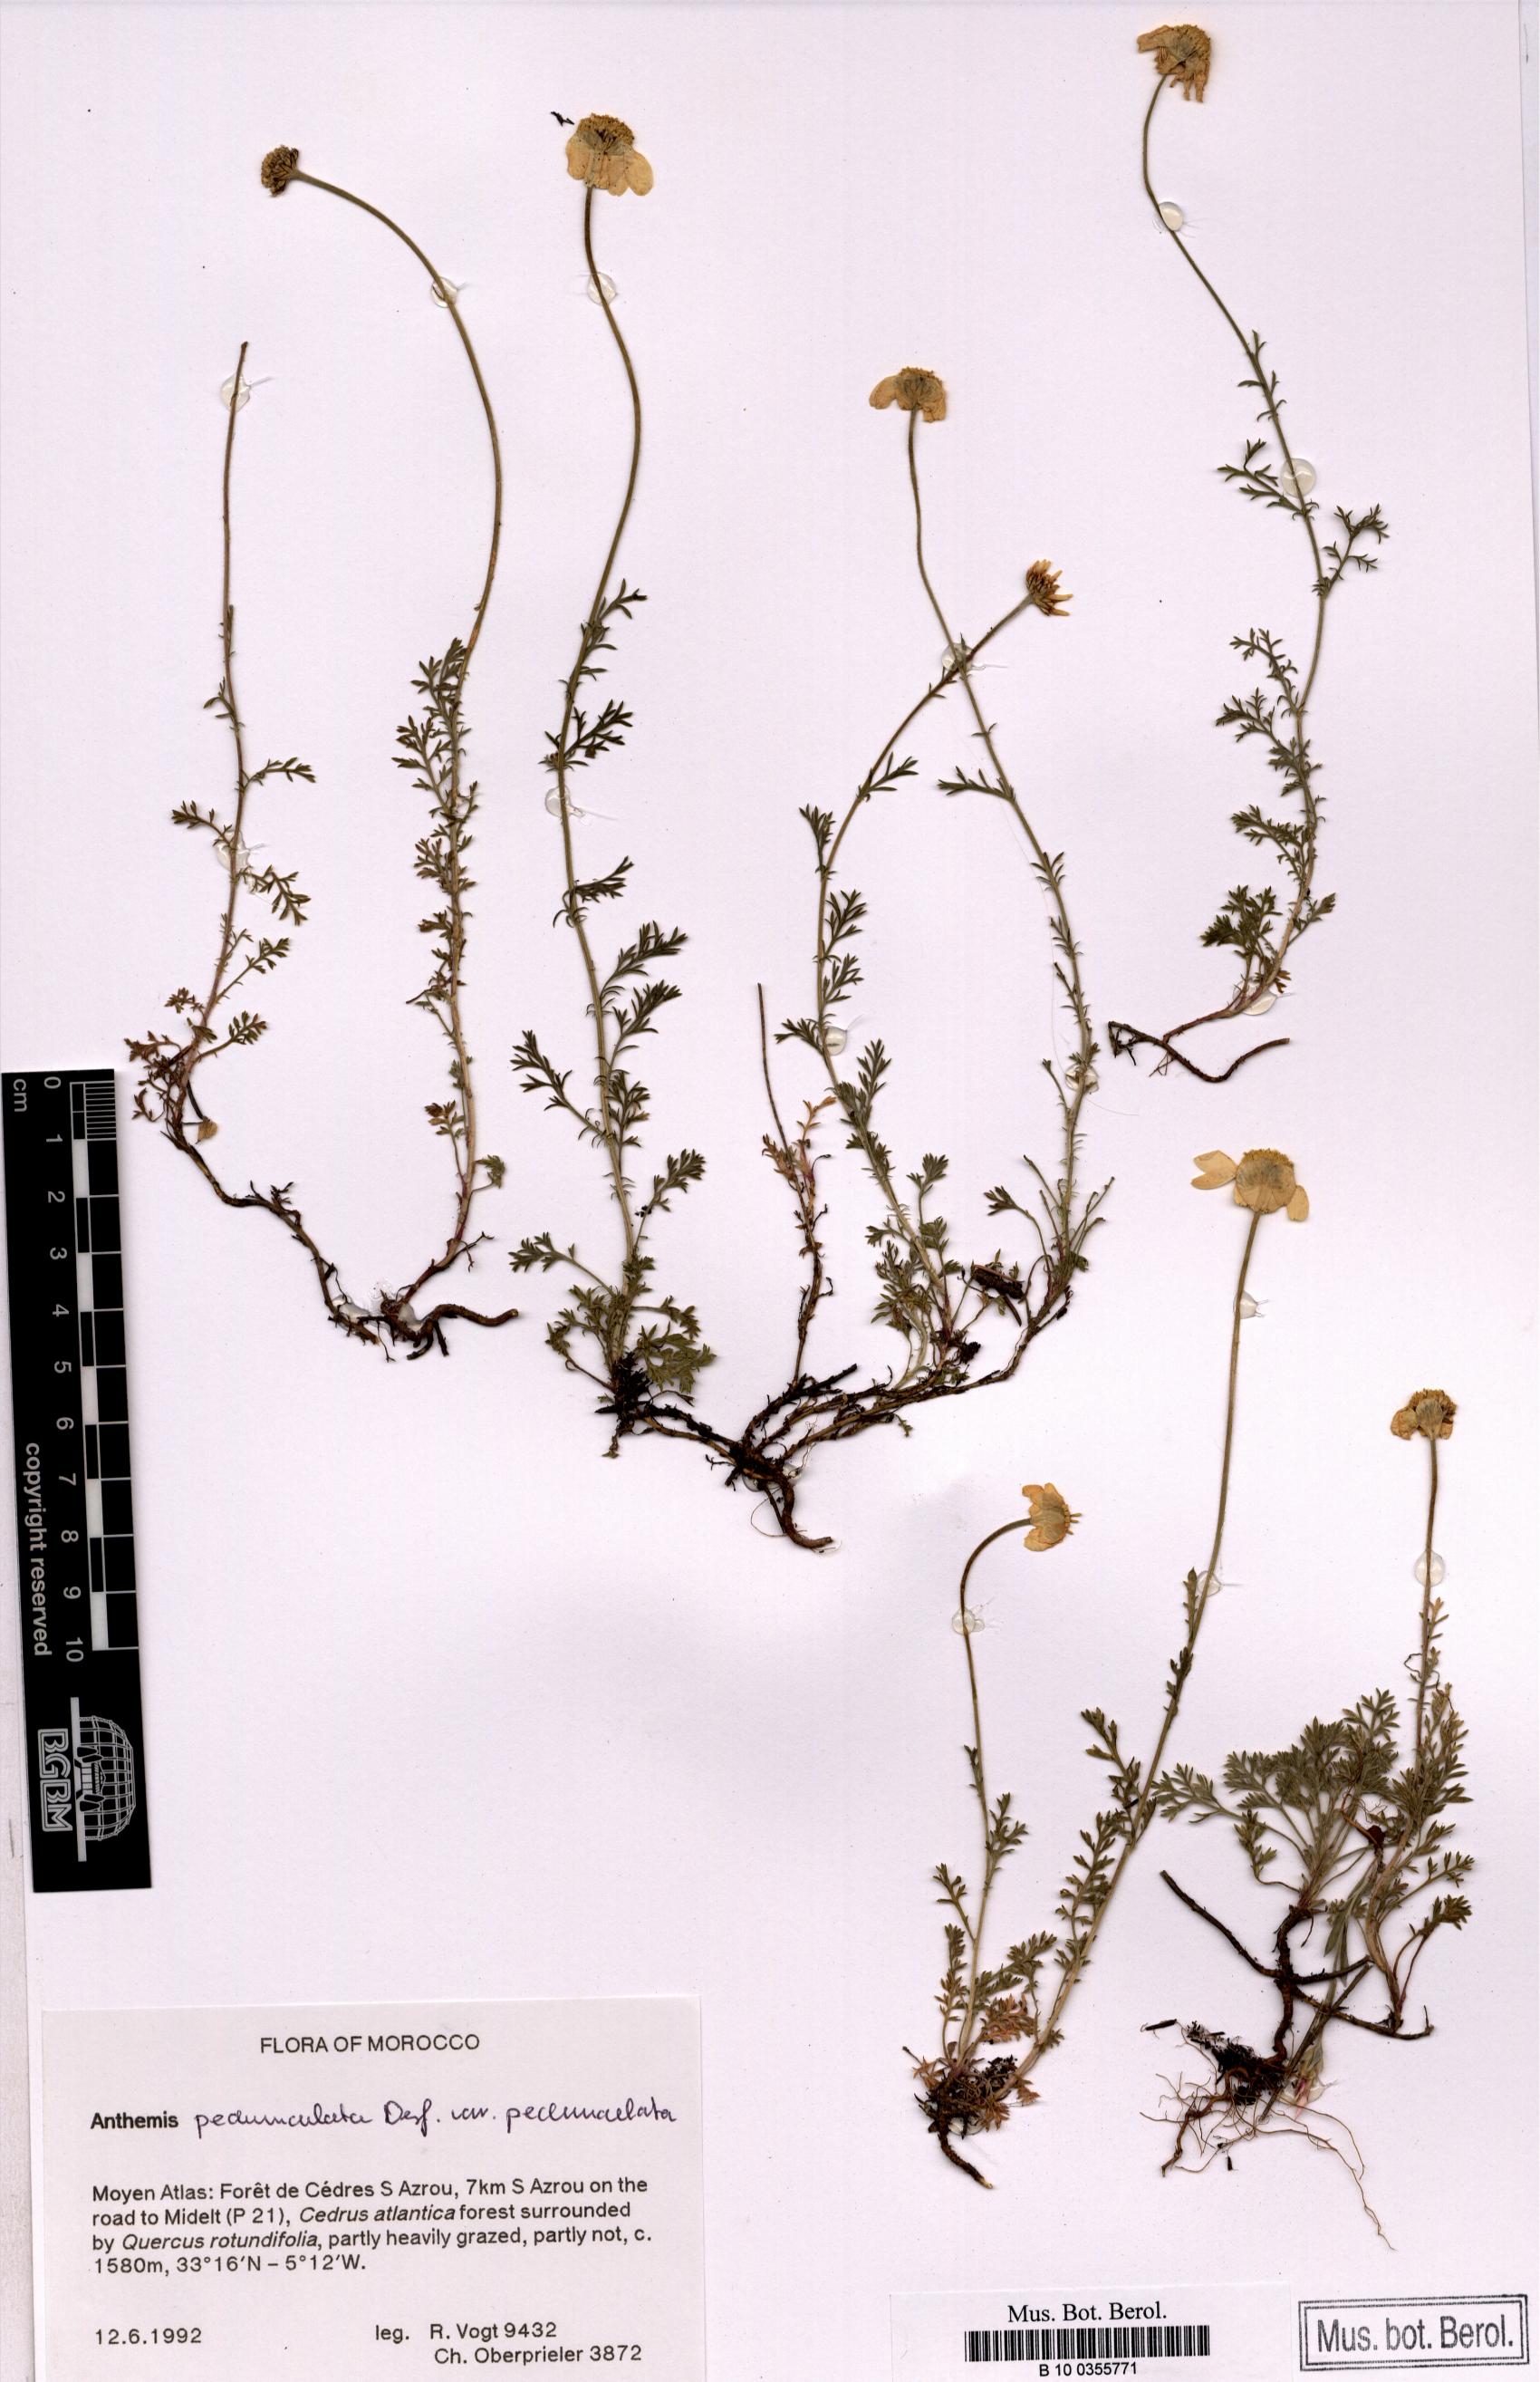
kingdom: Plantae
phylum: Tracheophyta
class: Magnoliopsida
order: Asterales
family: Asteraceae
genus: Anthemis
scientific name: Anthemis pedunculata
